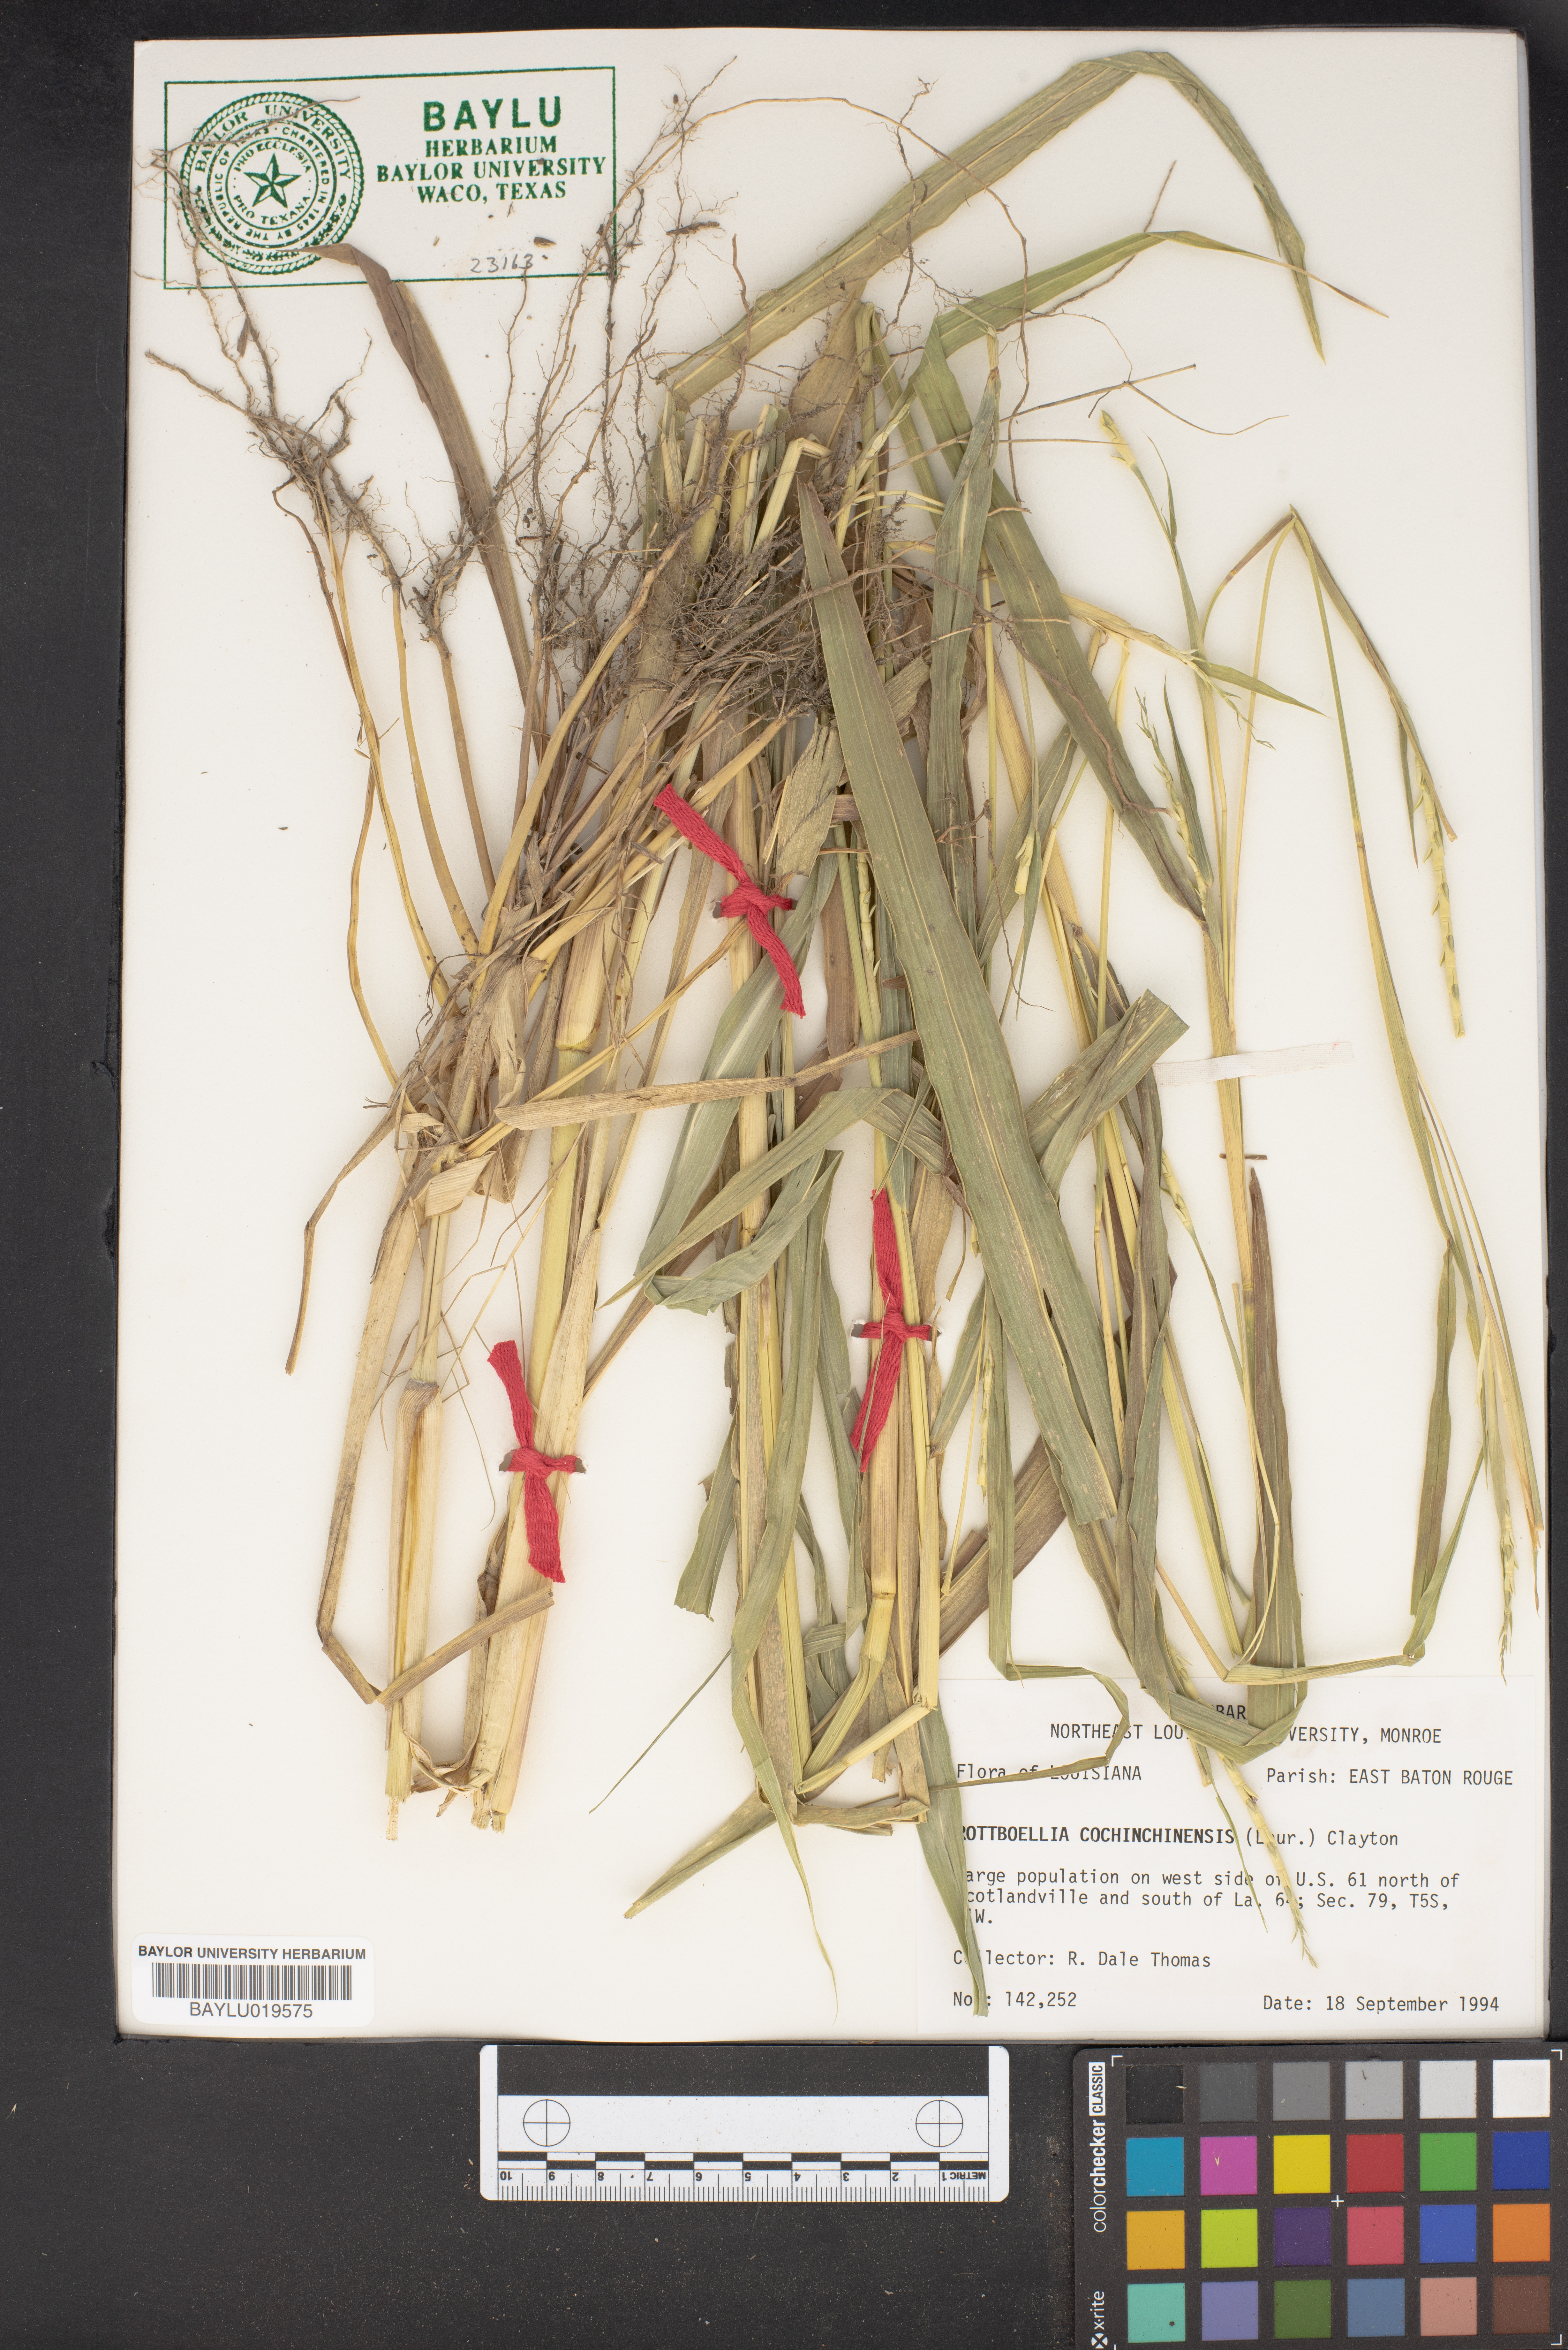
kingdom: Plantae
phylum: Tracheophyta
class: Liliopsida
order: Poales
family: Poaceae
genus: Rottboellia
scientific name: Rottboellia cochinchinensis
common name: Itchgrass
